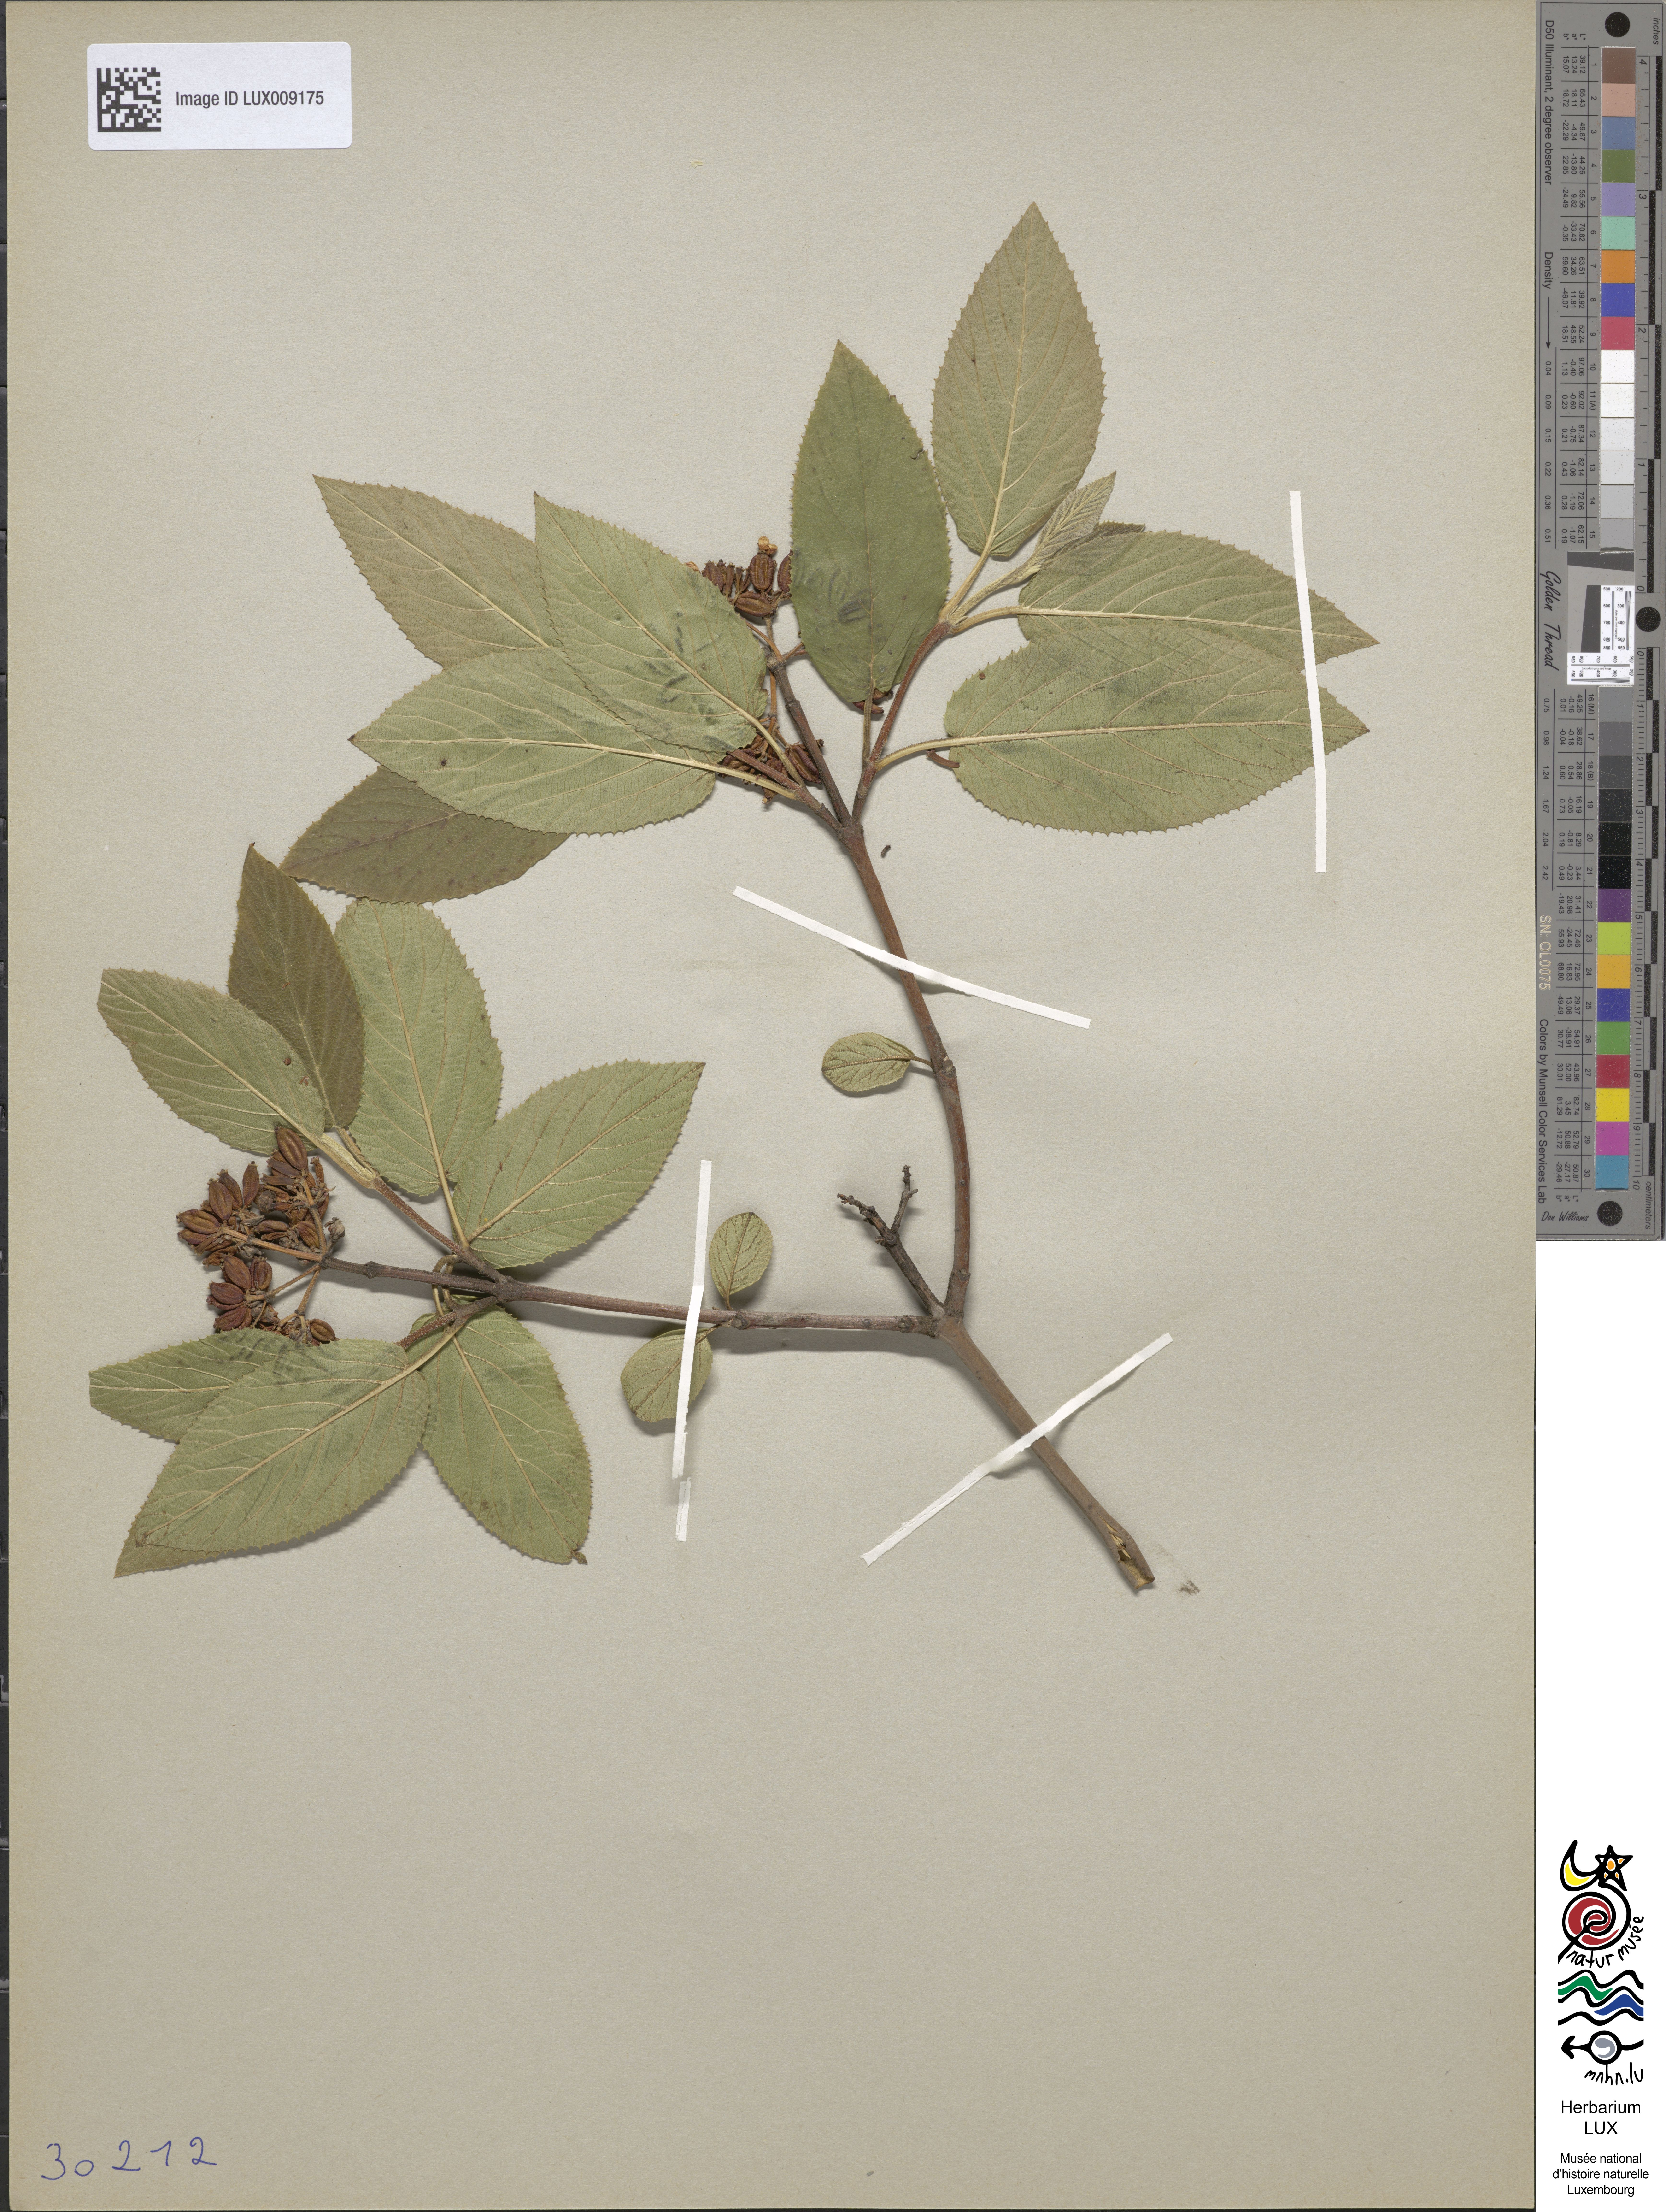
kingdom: Plantae
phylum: Tracheophyta
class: Magnoliopsida
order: Dipsacales
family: Viburnaceae
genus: Viburnum
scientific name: Viburnum lantana
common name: Wayfaring tree
